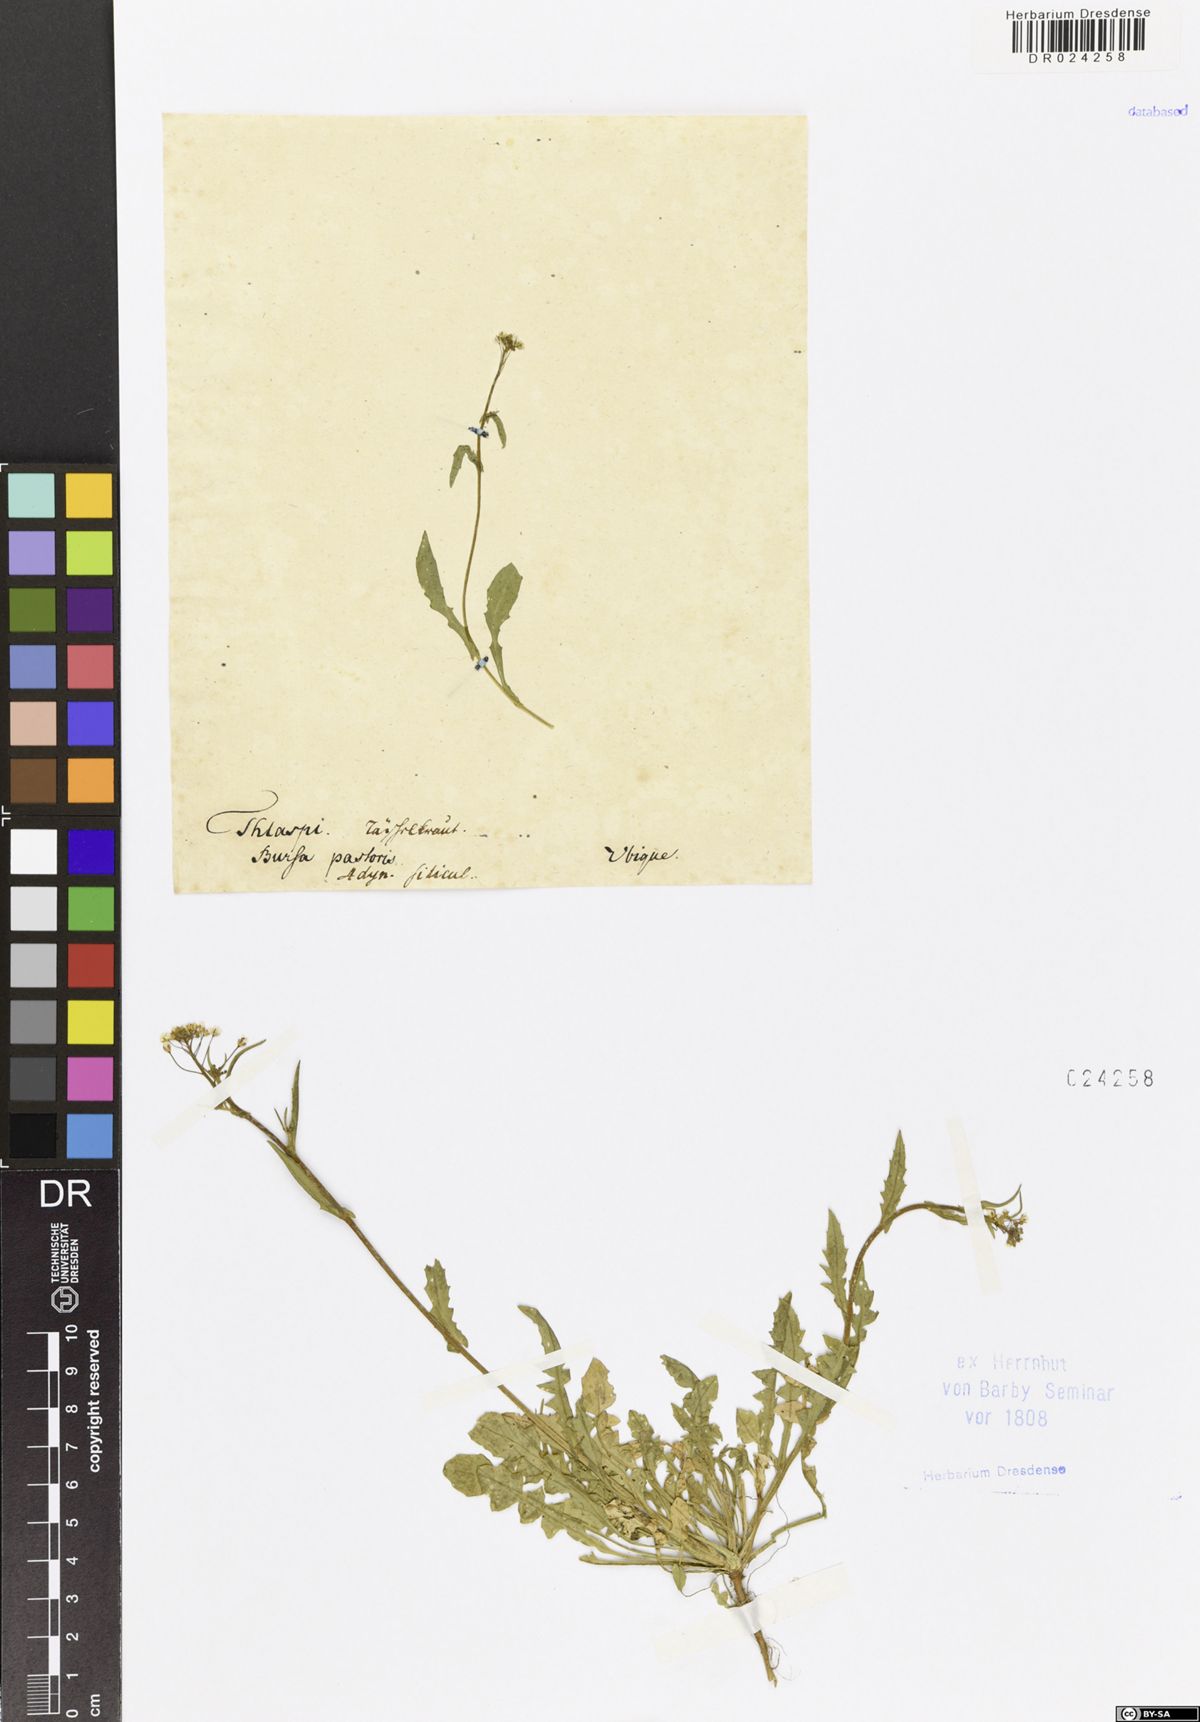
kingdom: Plantae
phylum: Tracheophyta
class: Magnoliopsida
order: Brassicales
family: Brassicaceae
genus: Capsella
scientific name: Capsella bursa-pastoris
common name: Shepherd's purse
